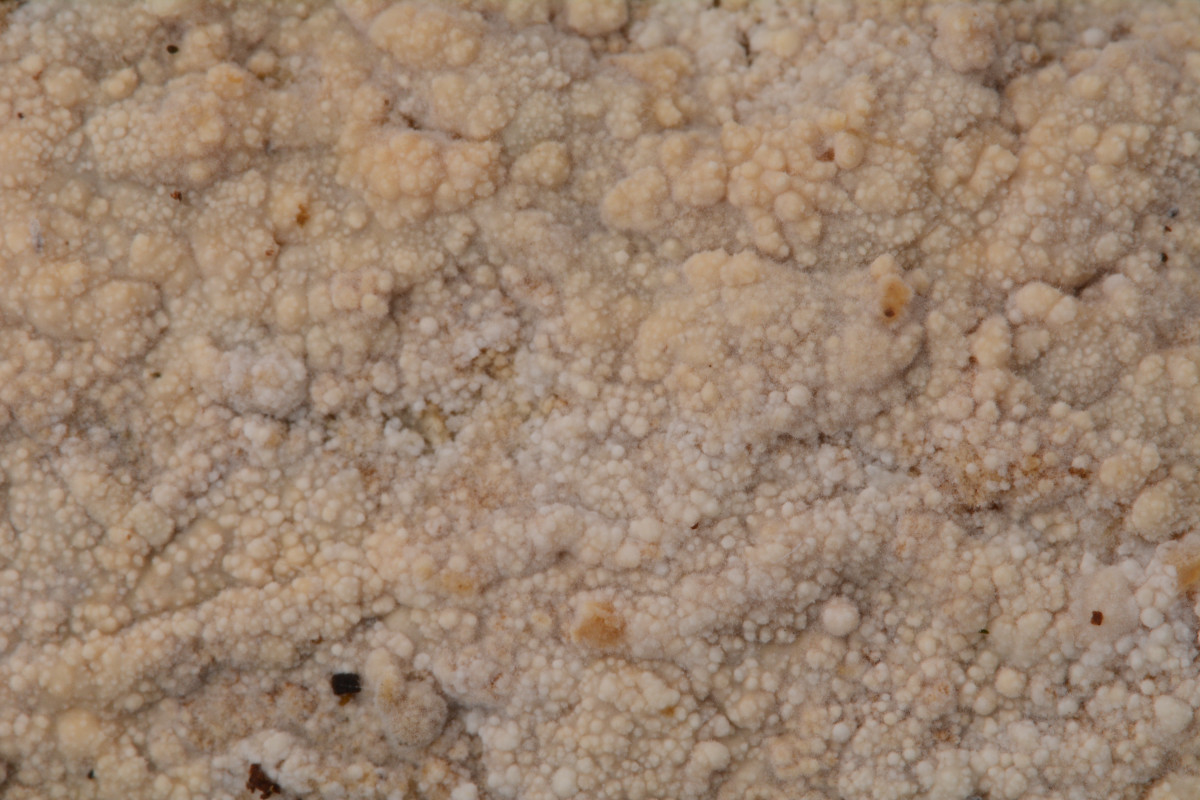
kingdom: Fungi
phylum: Basidiomycota
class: Agaricomycetes
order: Polyporales
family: Hyphodermataceae
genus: Hyphoderma
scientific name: Hyphoderma setigerum
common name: håret kalkskind
